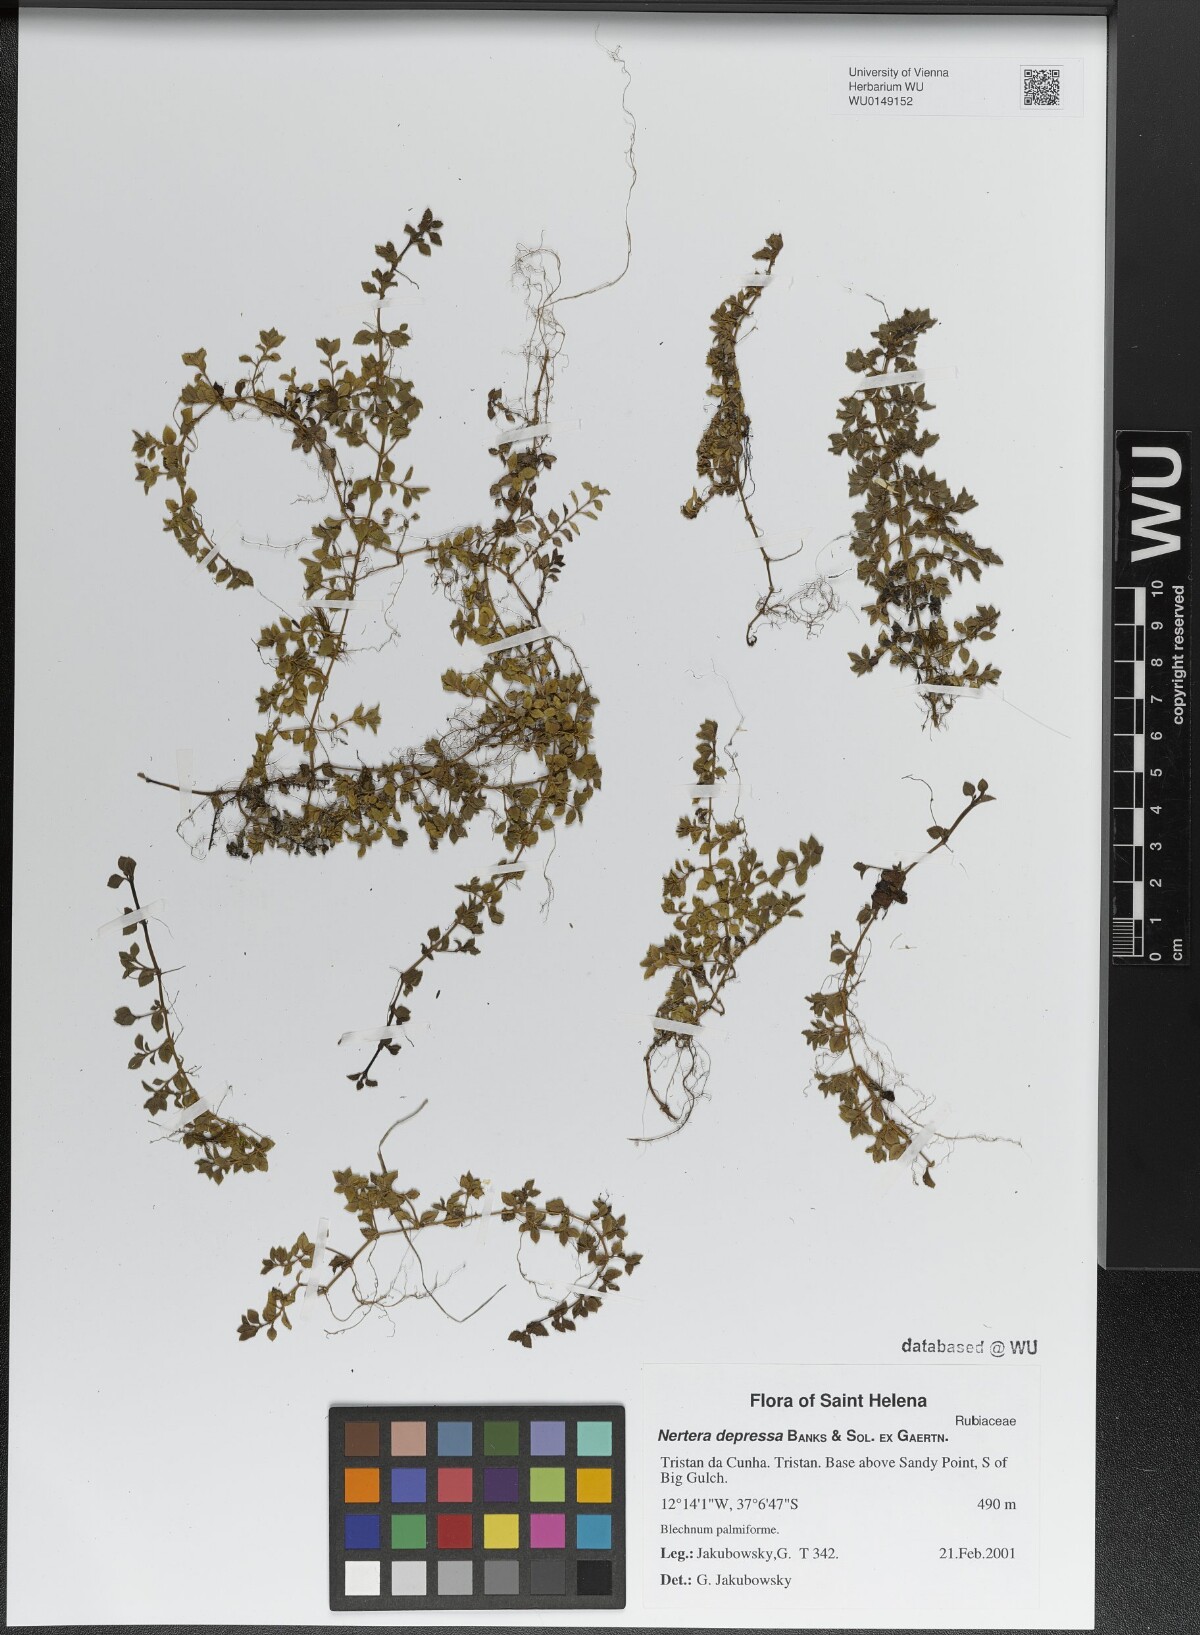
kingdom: Plantae
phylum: Tracheophyta
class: Magnoliopsida
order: Gentianales
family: Rubiaceae
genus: Nertera
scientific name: Nertera granadensis
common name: Beadplant
